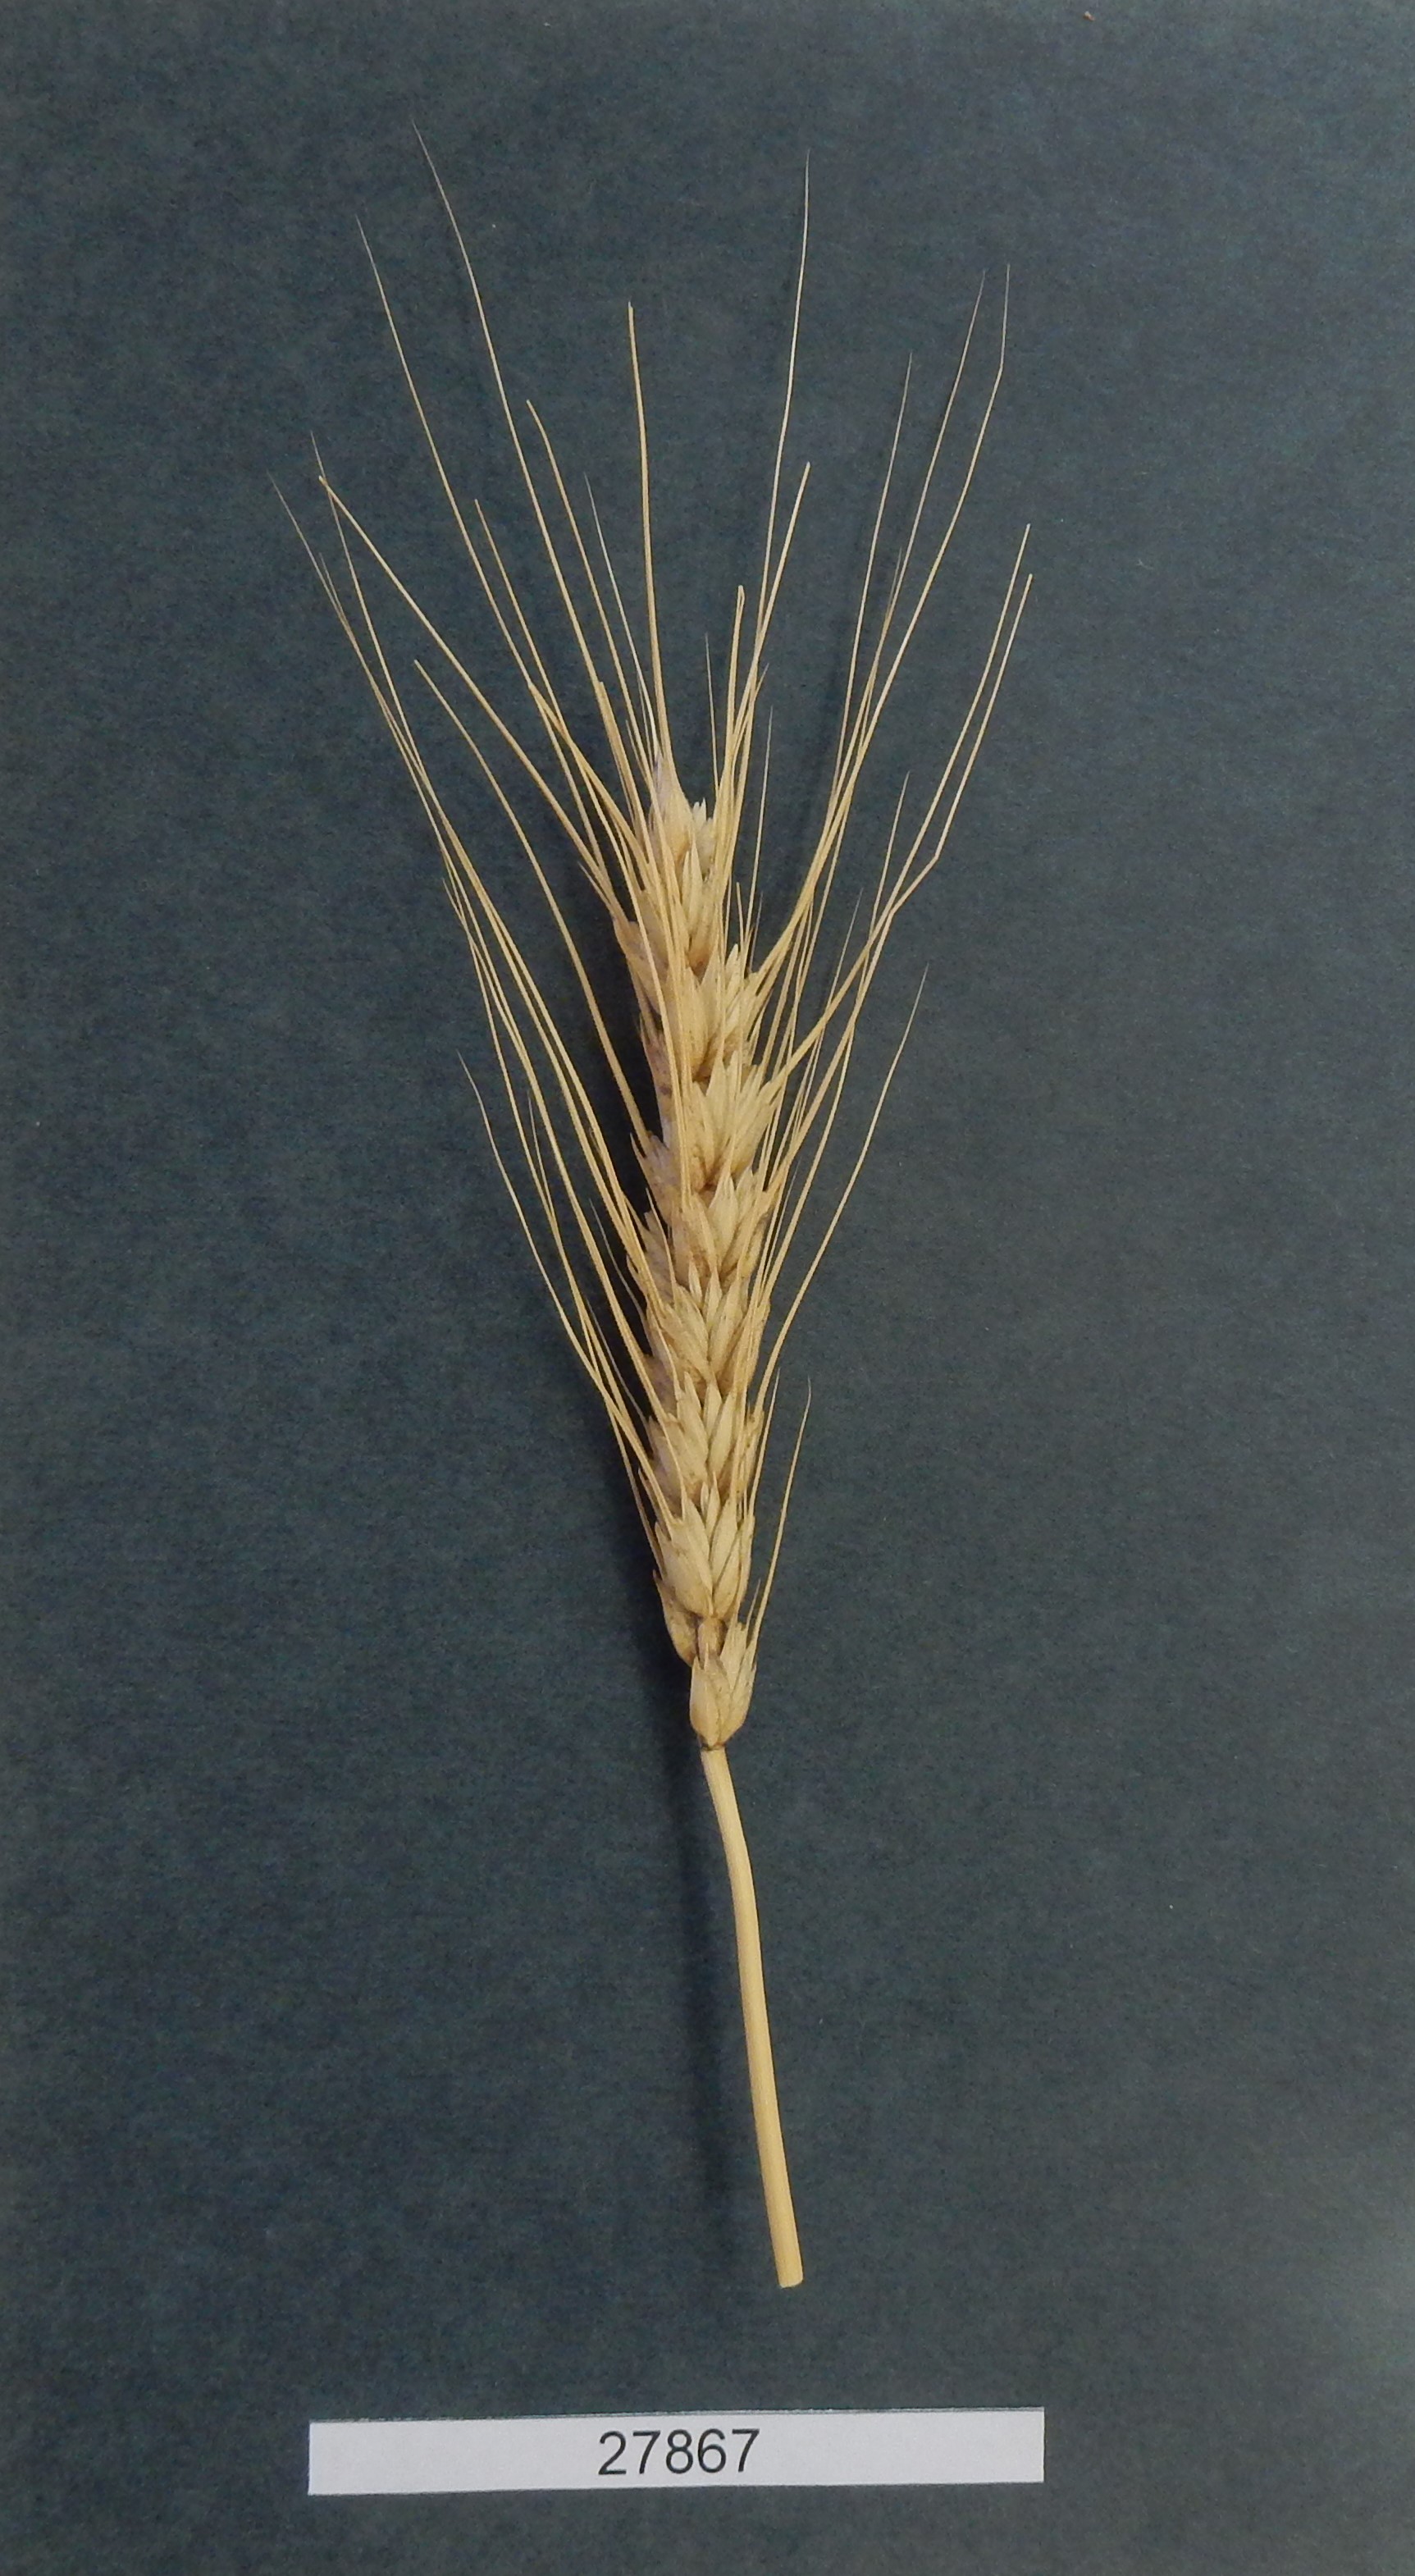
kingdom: Plantae
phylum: Tracheophyta
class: Liliopsida
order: Poales
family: Poaceae
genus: Triticum
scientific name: Triticum aestivum
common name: Common wheat
